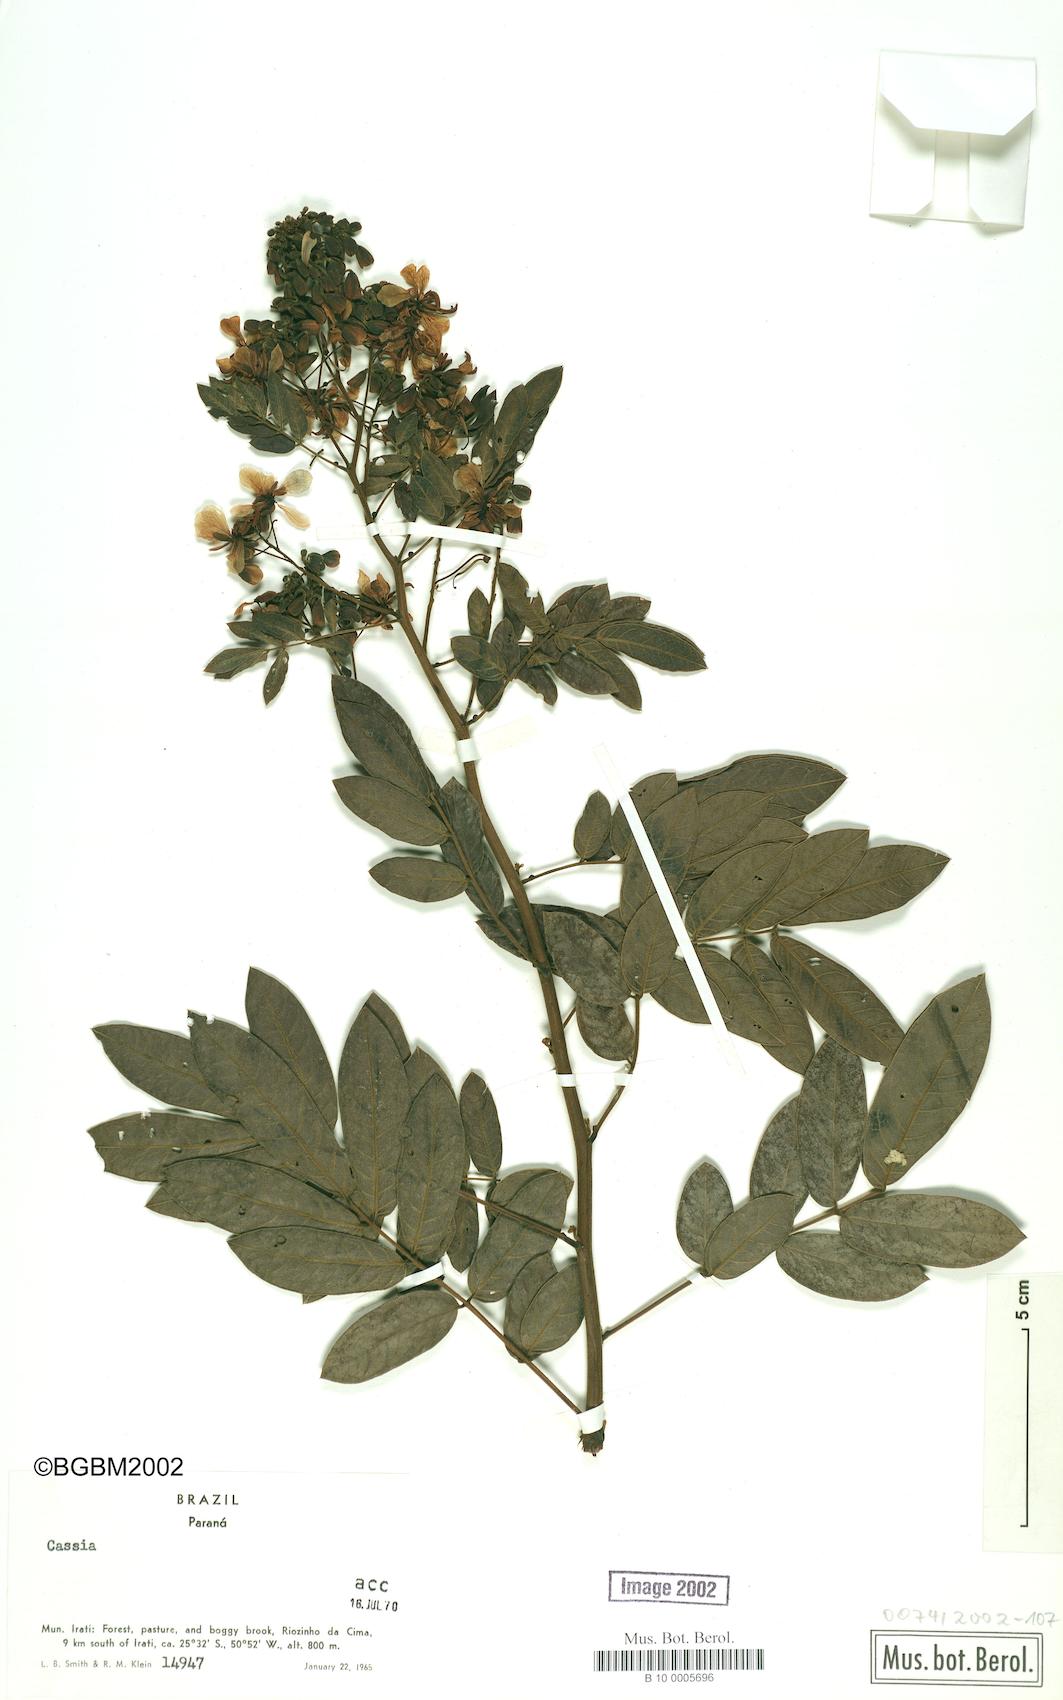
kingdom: Plantae
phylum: Tracheophyta
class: Magnoliopsida
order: Fabales
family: Fabaceae
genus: Cassia
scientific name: Cassia
